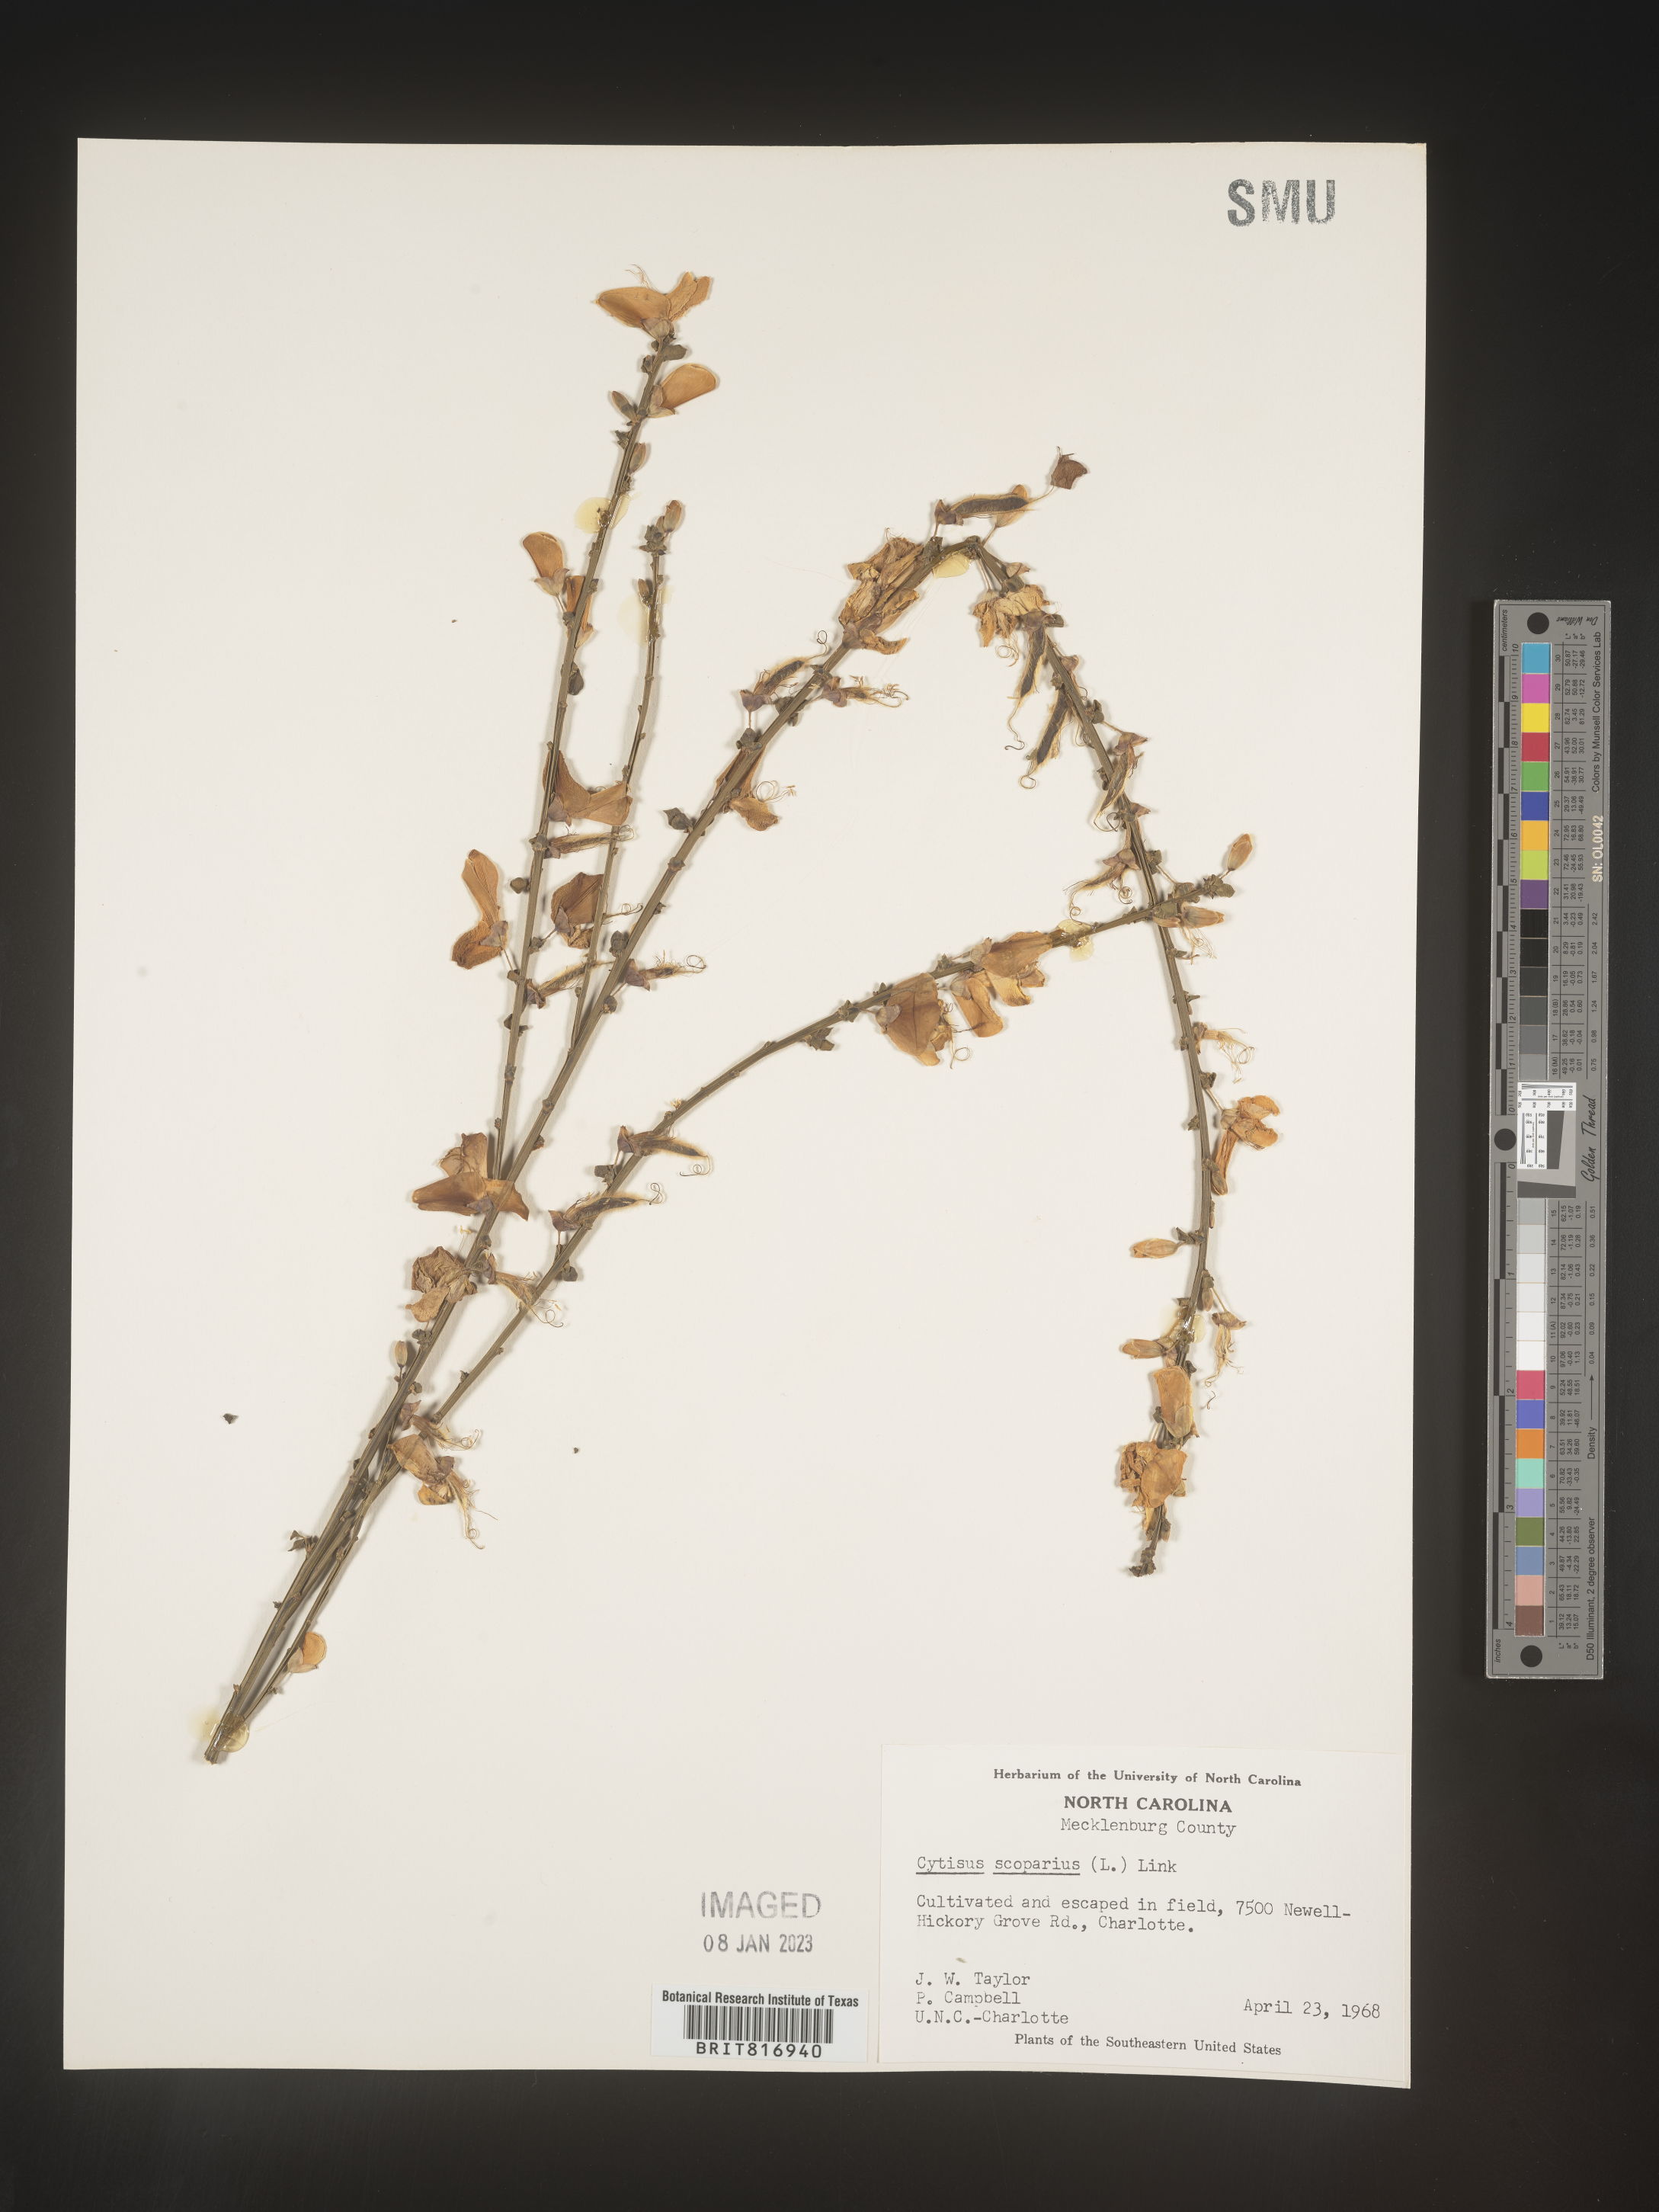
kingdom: Plantae
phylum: Tracheophyta
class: Magnoliopsida
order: Fabales
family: Fabaceae
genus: Cytisus
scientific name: Cytisus
